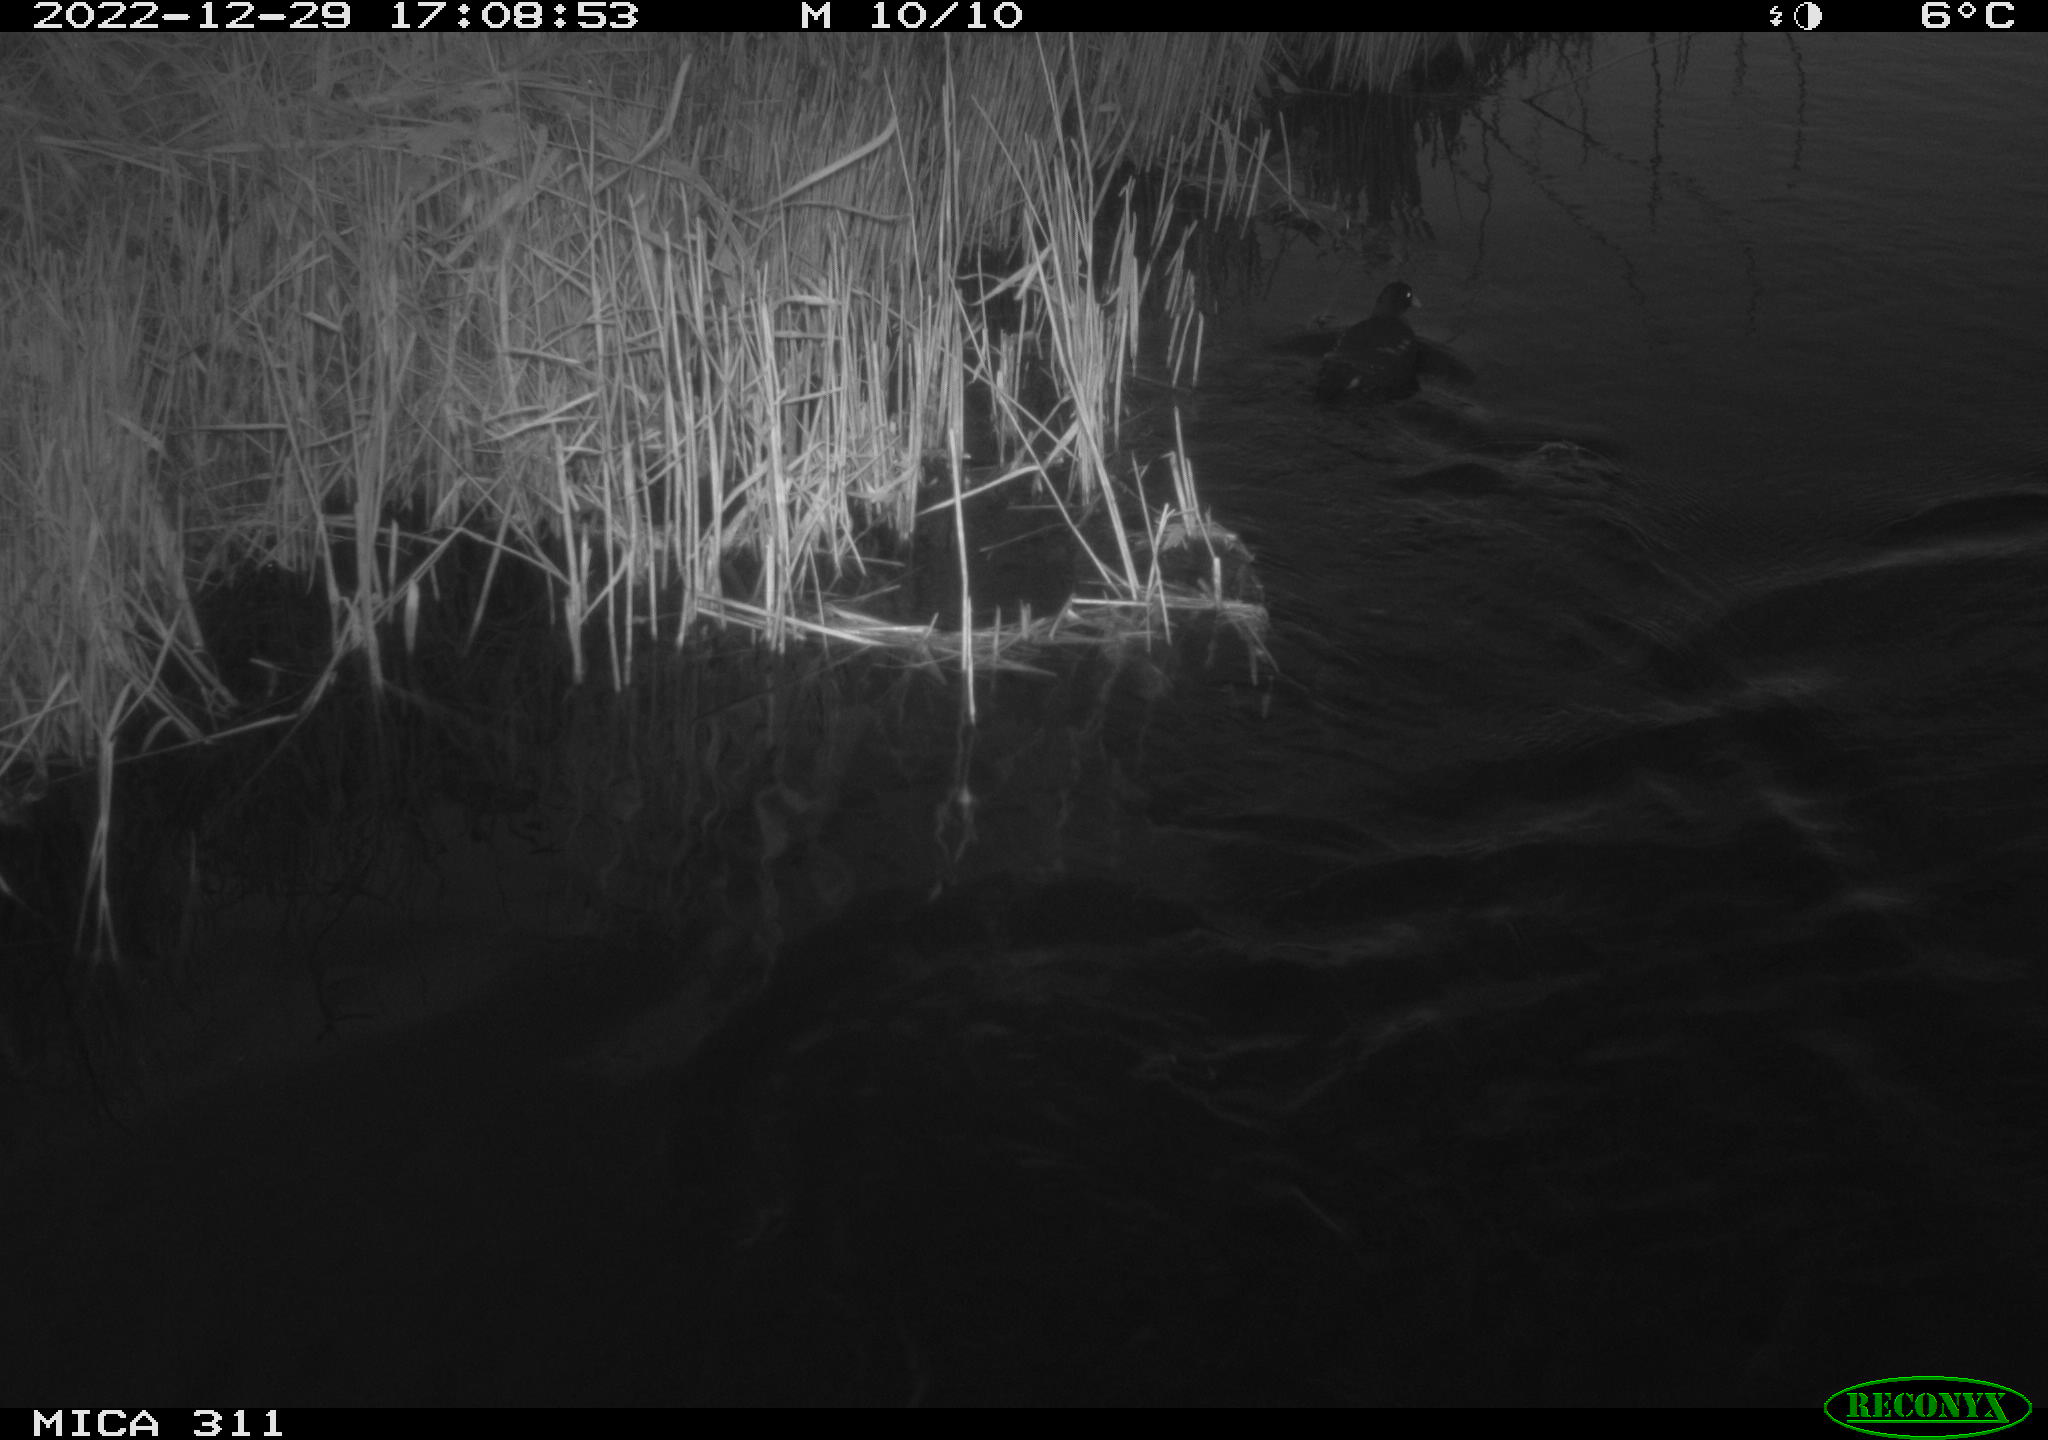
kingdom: Animalia
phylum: Chordata
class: Aves
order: Gruiformes
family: Rallidae
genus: Gallinula
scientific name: Gallinula chloropus
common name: Common moorhen
